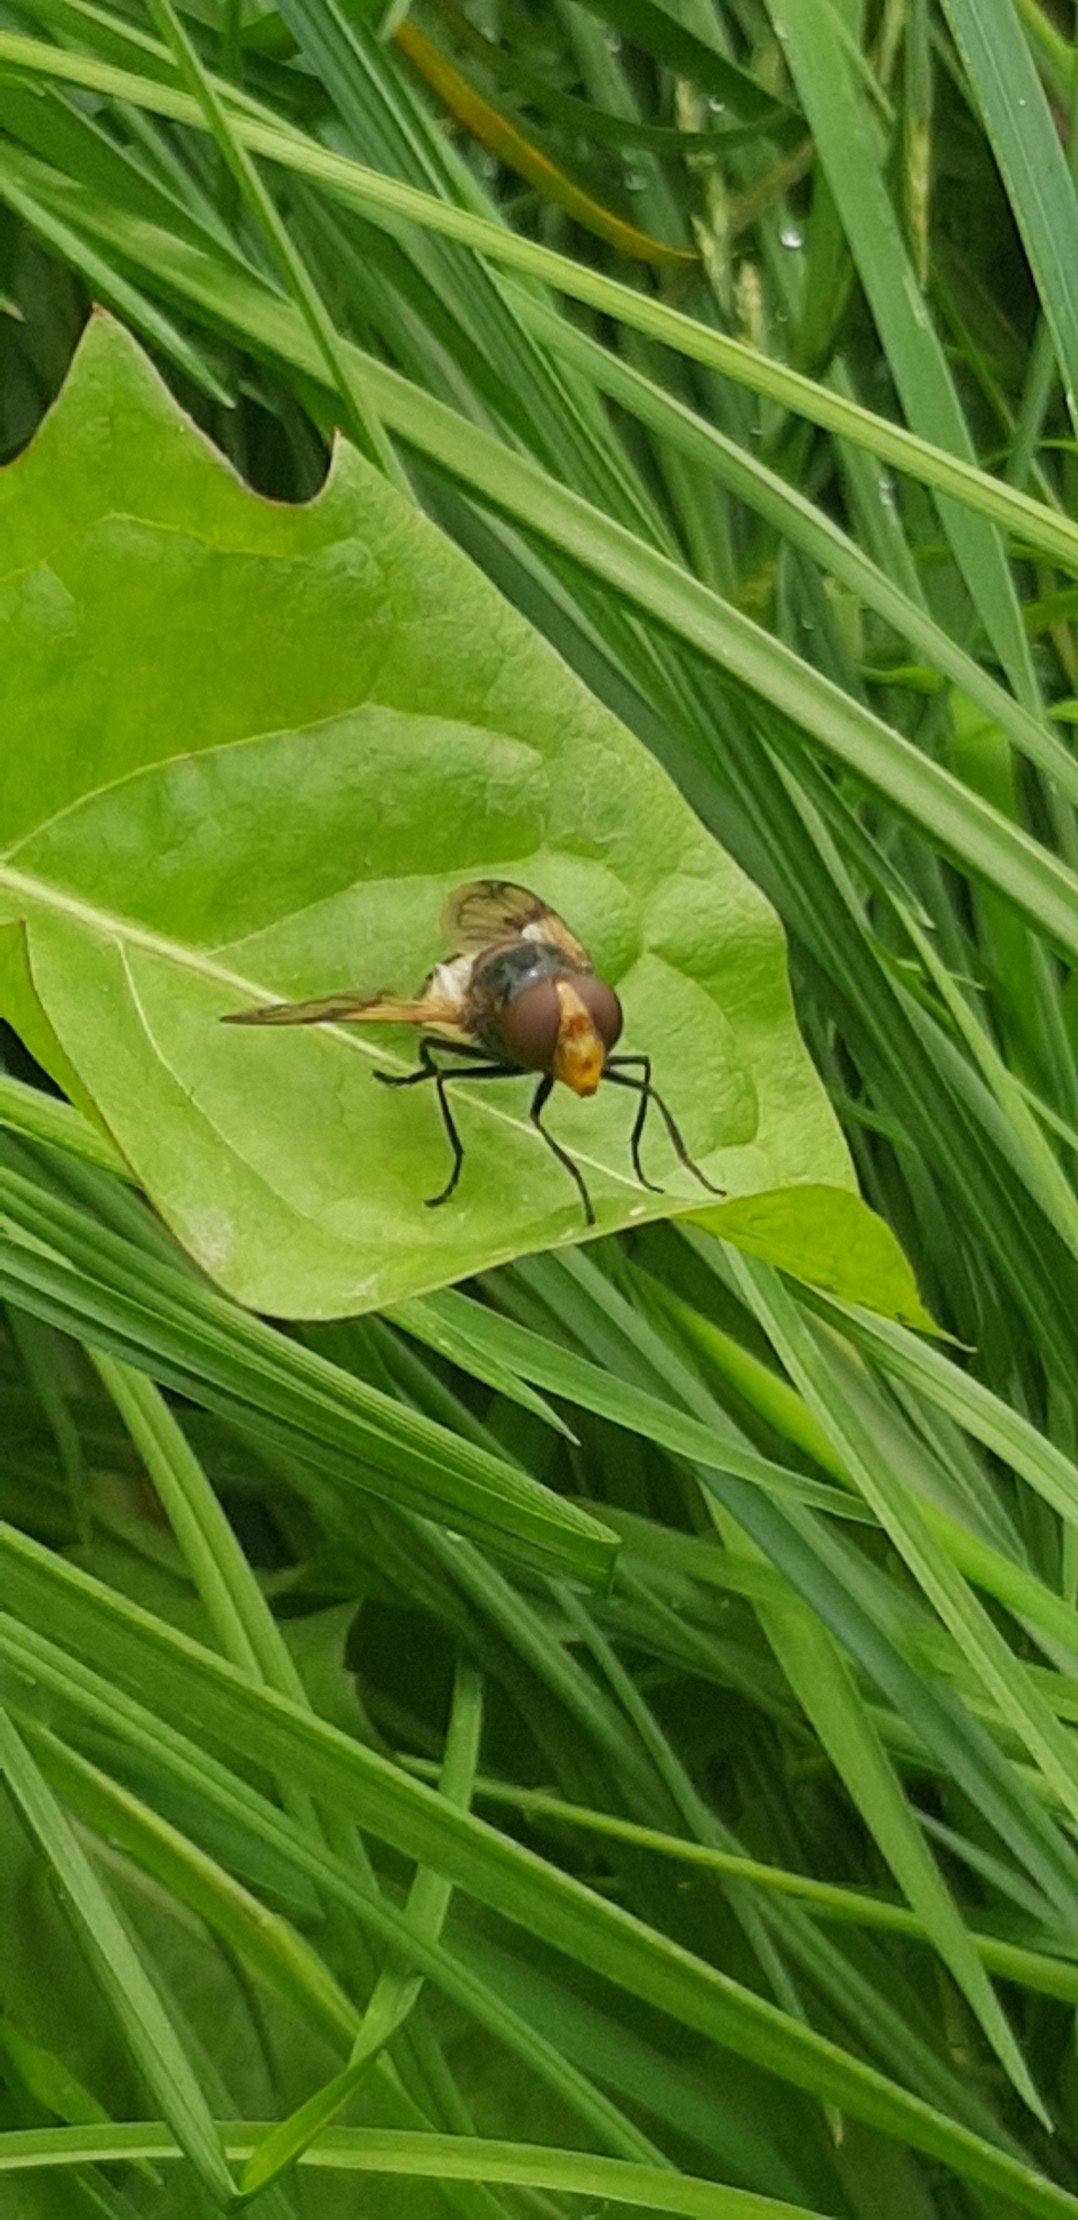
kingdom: Animalia
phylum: Arthropoda
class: Insecta
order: Diptera
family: Syrphidae
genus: Volucella
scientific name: Volucella pellucens
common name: Hvidbåndet humlesvirreflue
